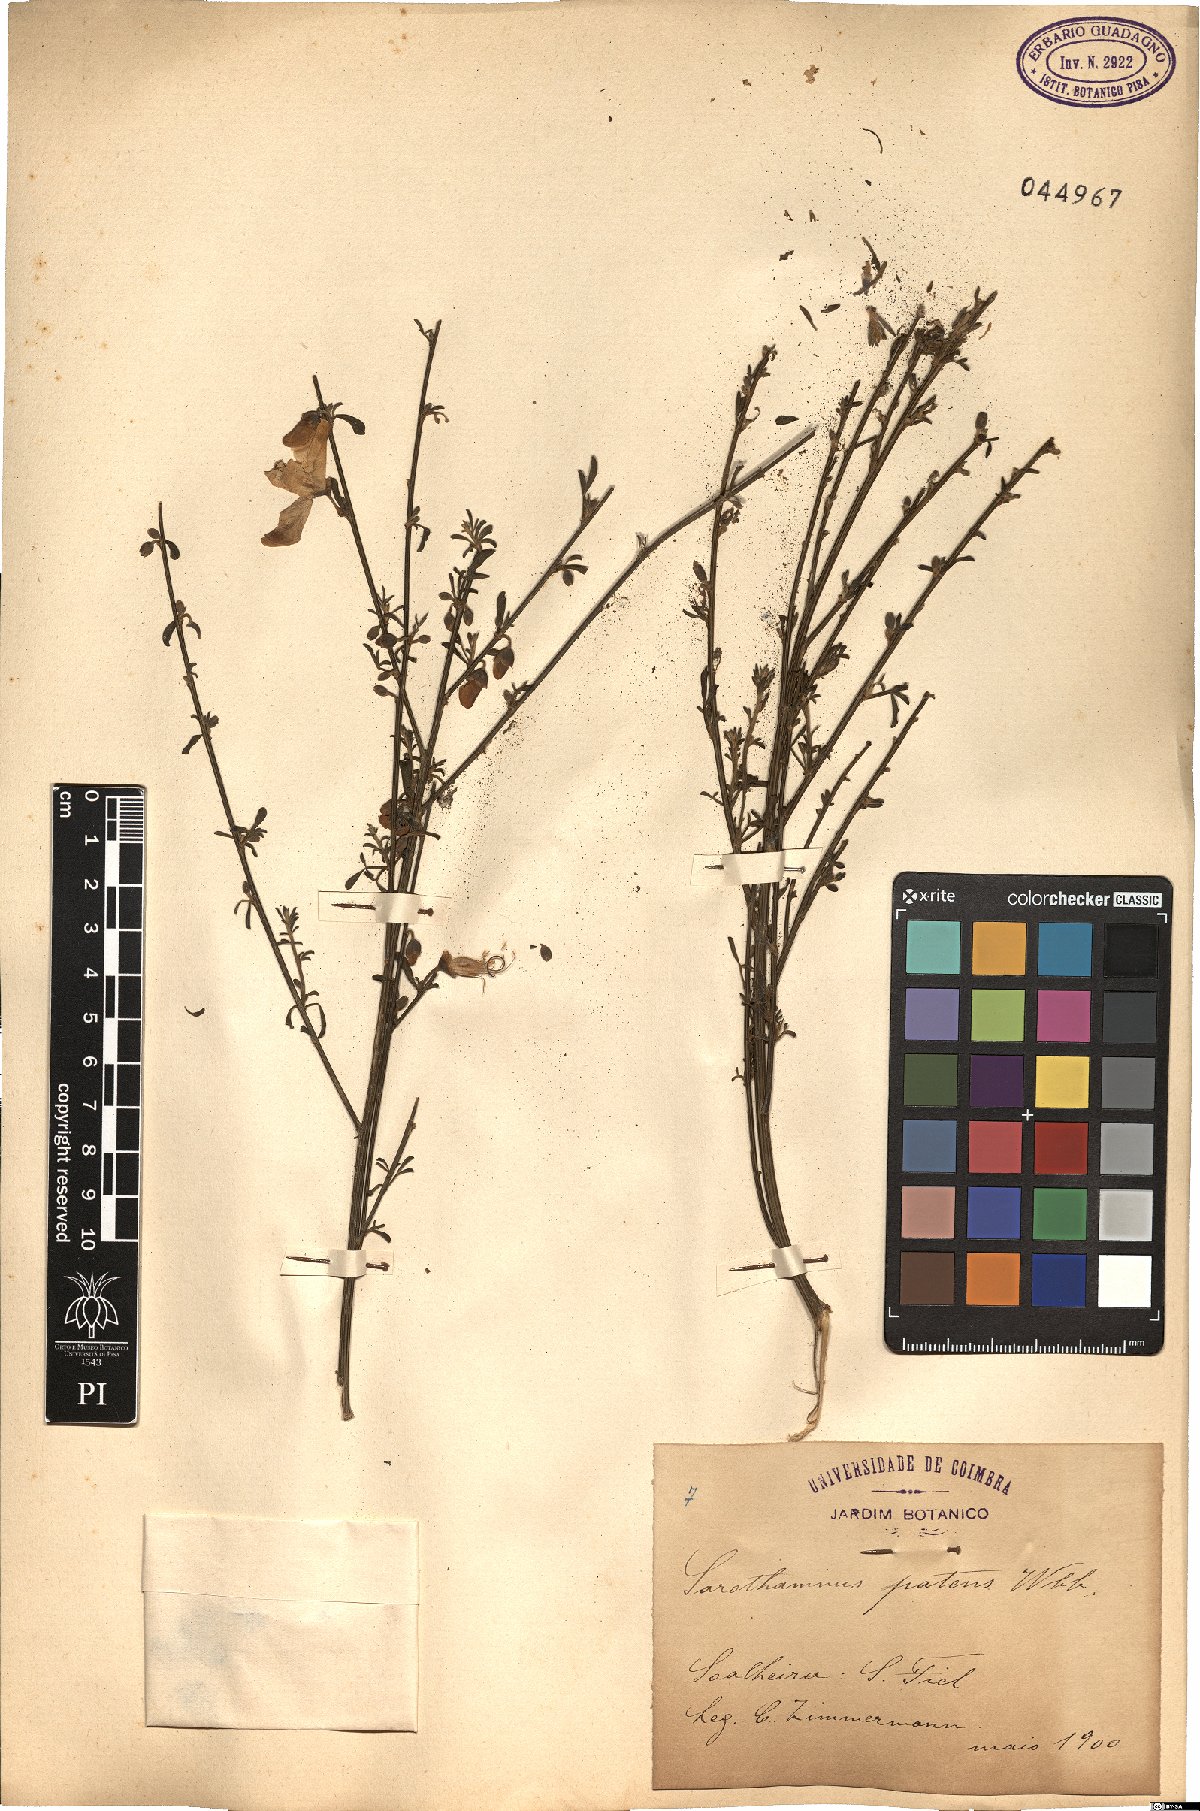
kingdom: Plantae
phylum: Tracheophyta
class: Magnoliopsida
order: Fabales
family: Fabaceae
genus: Cytisus
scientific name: Cytisus striatus
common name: Hairy-fruited broom
